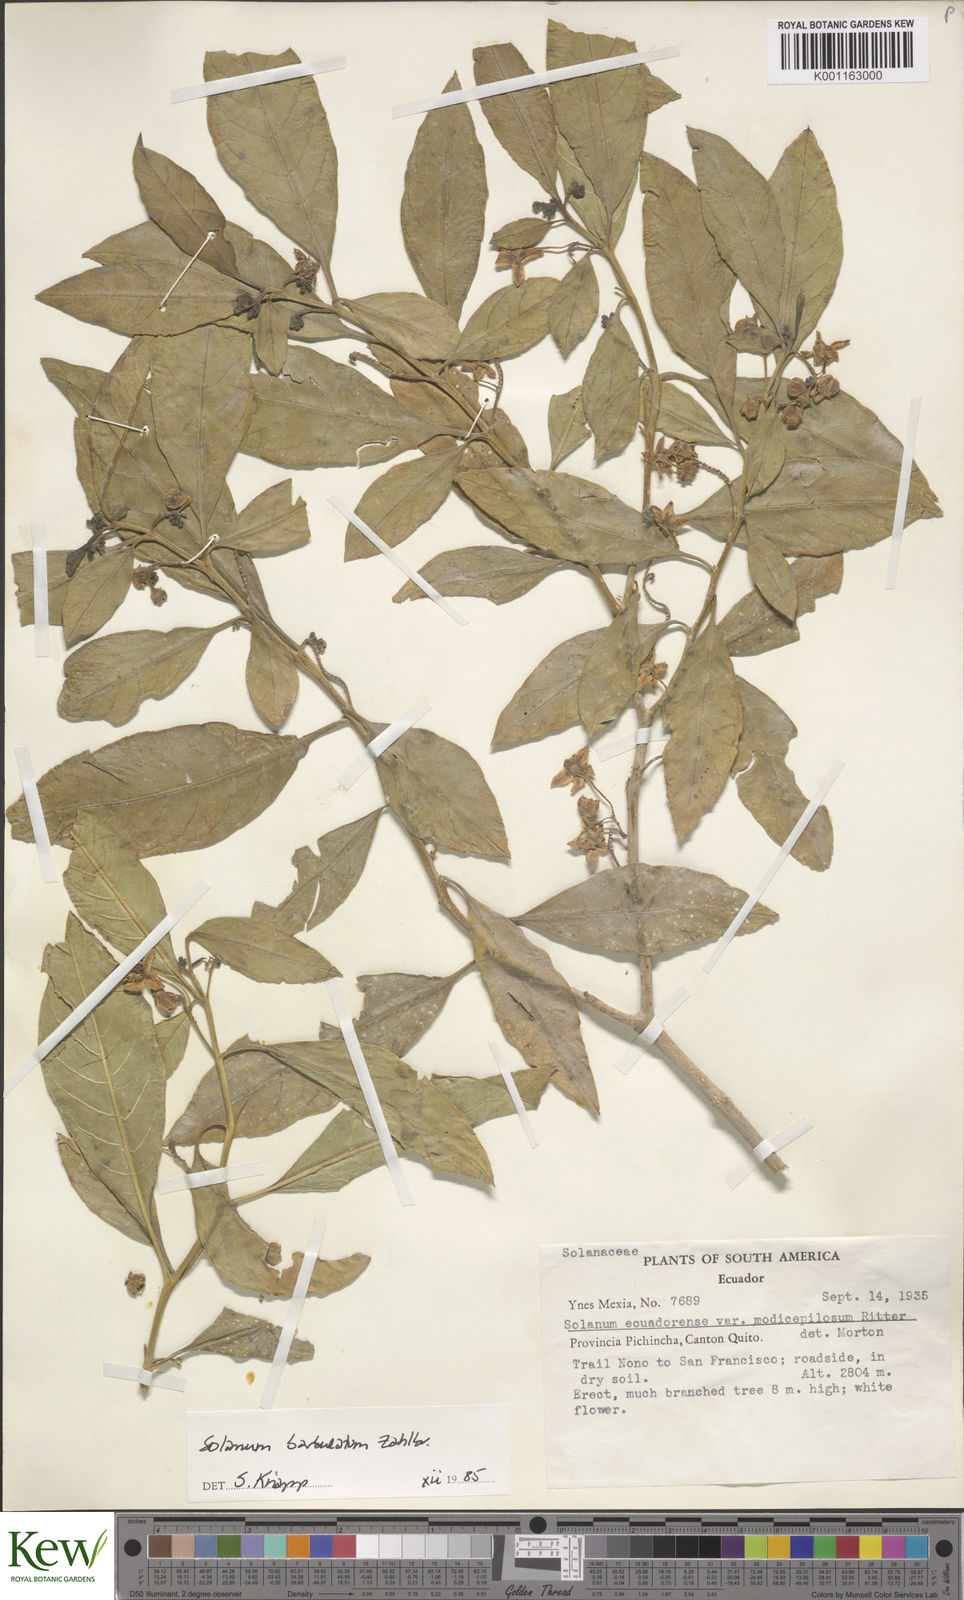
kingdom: Plantae
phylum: Tracheophyta
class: Magnoliopsida
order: Solanales
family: Solanaceae
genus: Solanum
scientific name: Solanum barbulatum
